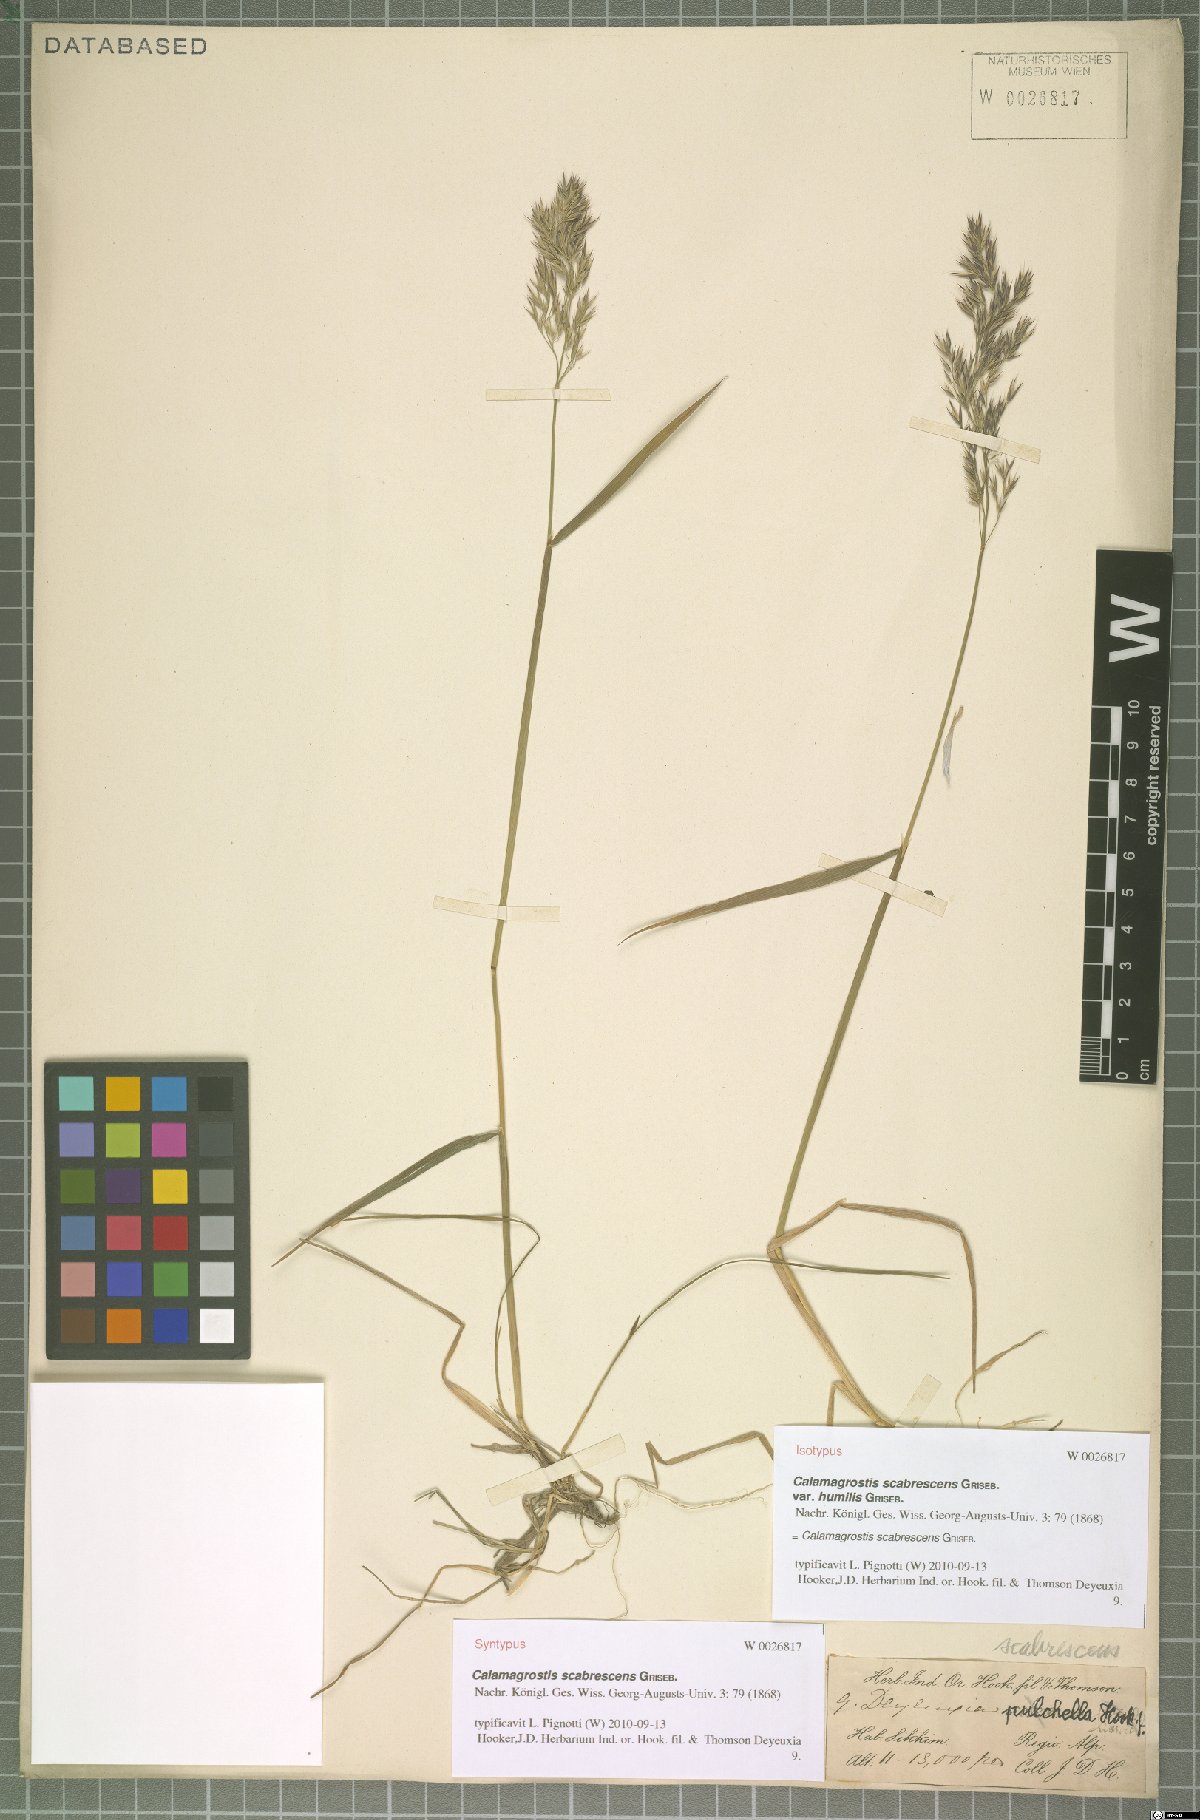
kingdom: Plantae
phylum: Tracheophyta
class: Liliopsida
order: Poales
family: Poaceae
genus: Calamagrostis
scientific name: Calamagrostis scabrescens
